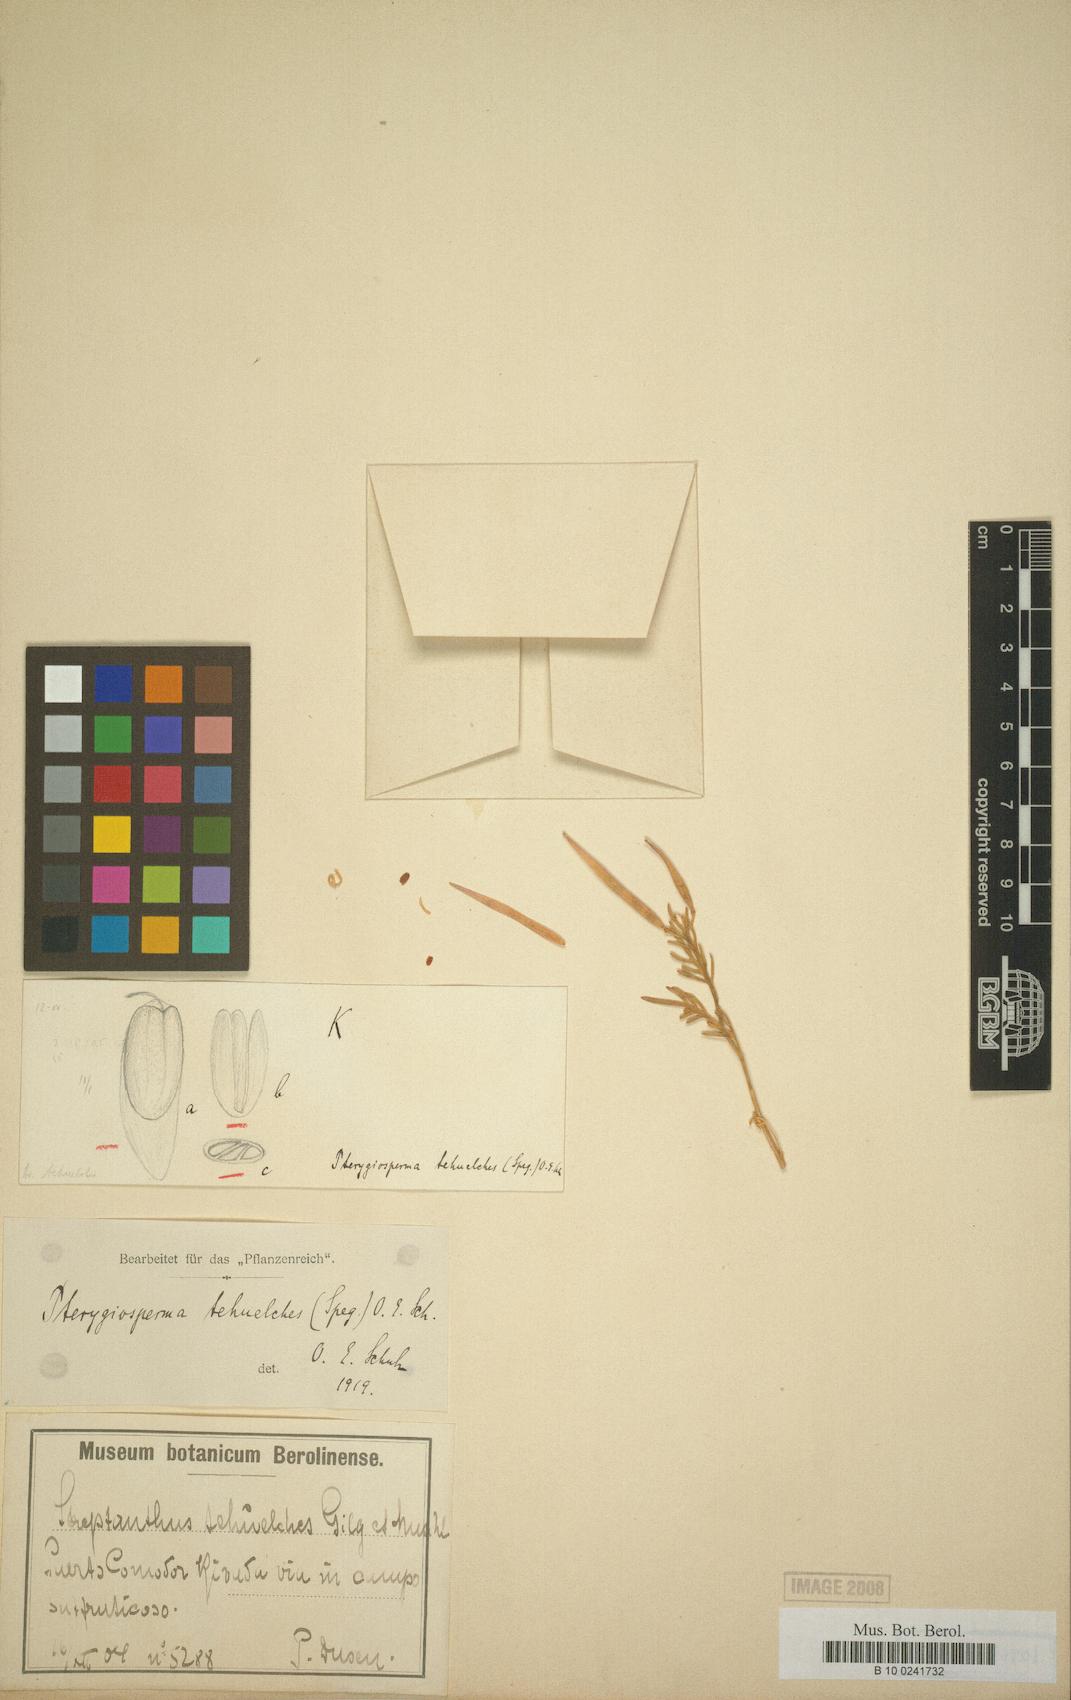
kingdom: Plantae
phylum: Tracheophyta
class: Magnoliopsida
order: Brassicales
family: Brassicaceae
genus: Sibara
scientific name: Sibara tehuelches
